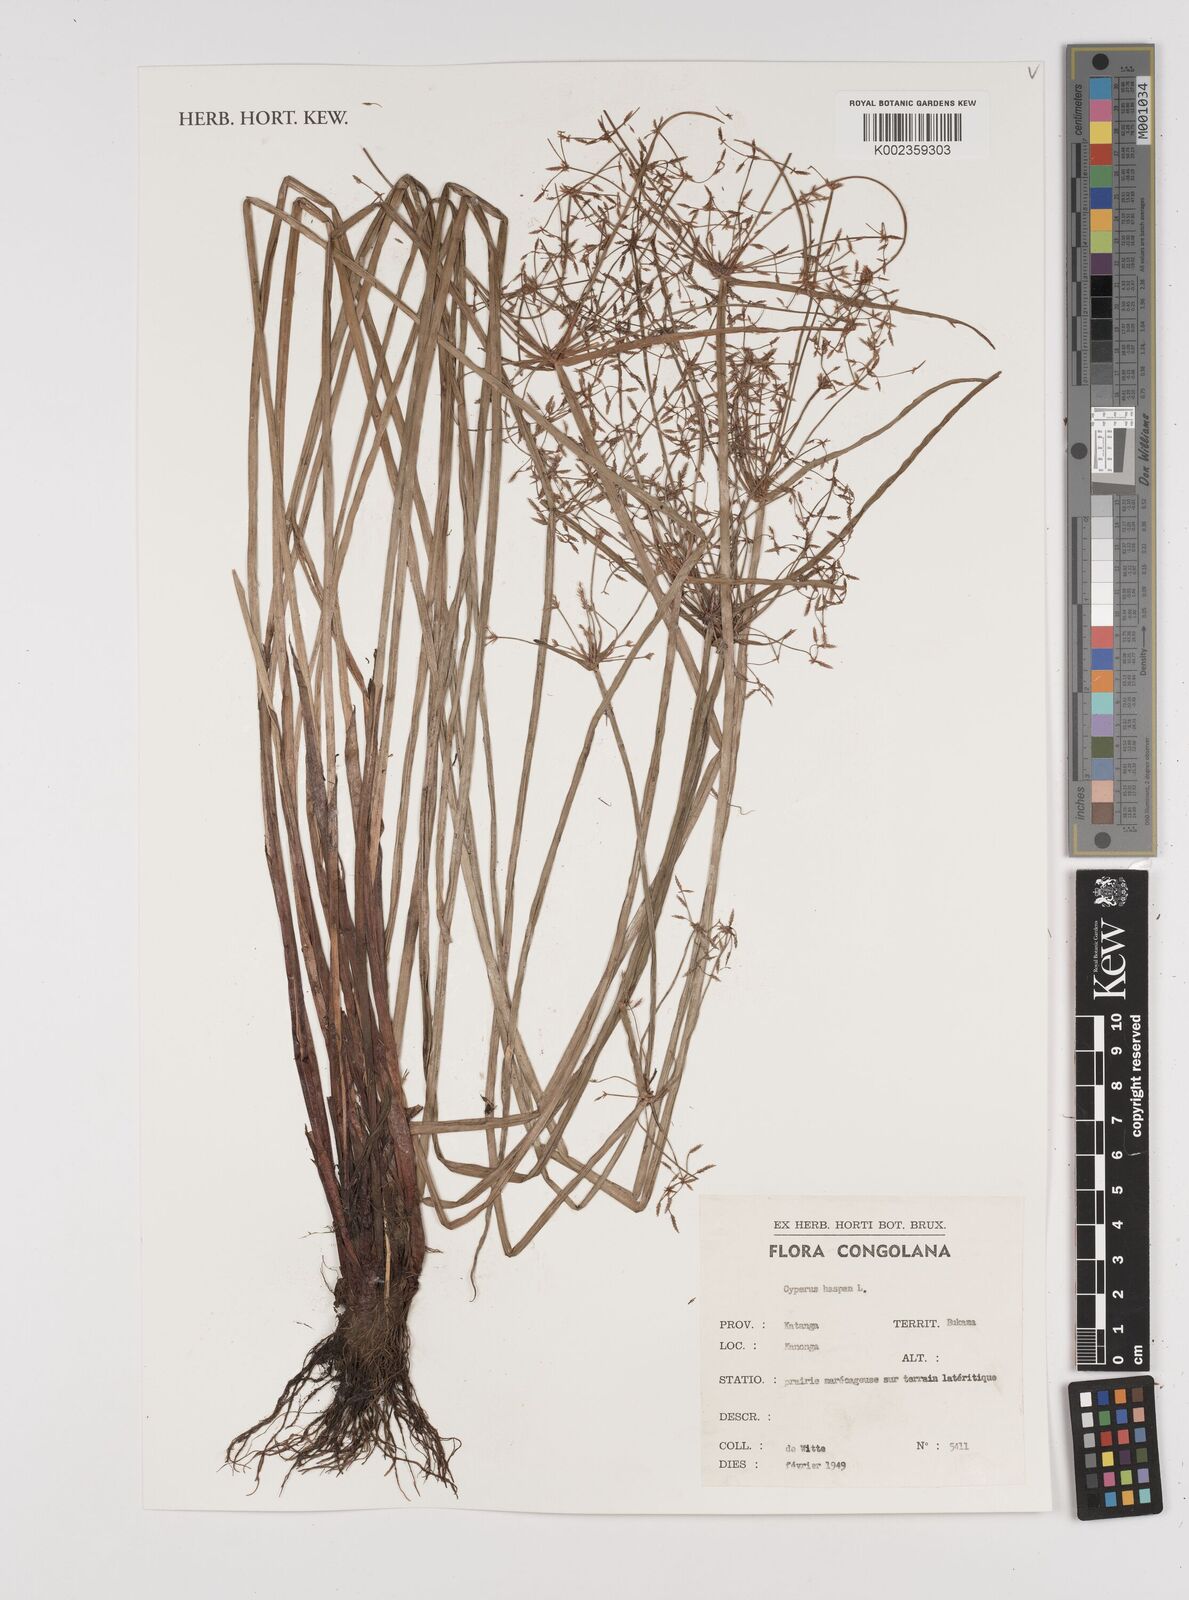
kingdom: Plantae
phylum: Tracheophyta
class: Liliopsida
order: Poales
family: Cyperaceae
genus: Cyperus
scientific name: Cyperus haspan
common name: Haspan flatsedge
